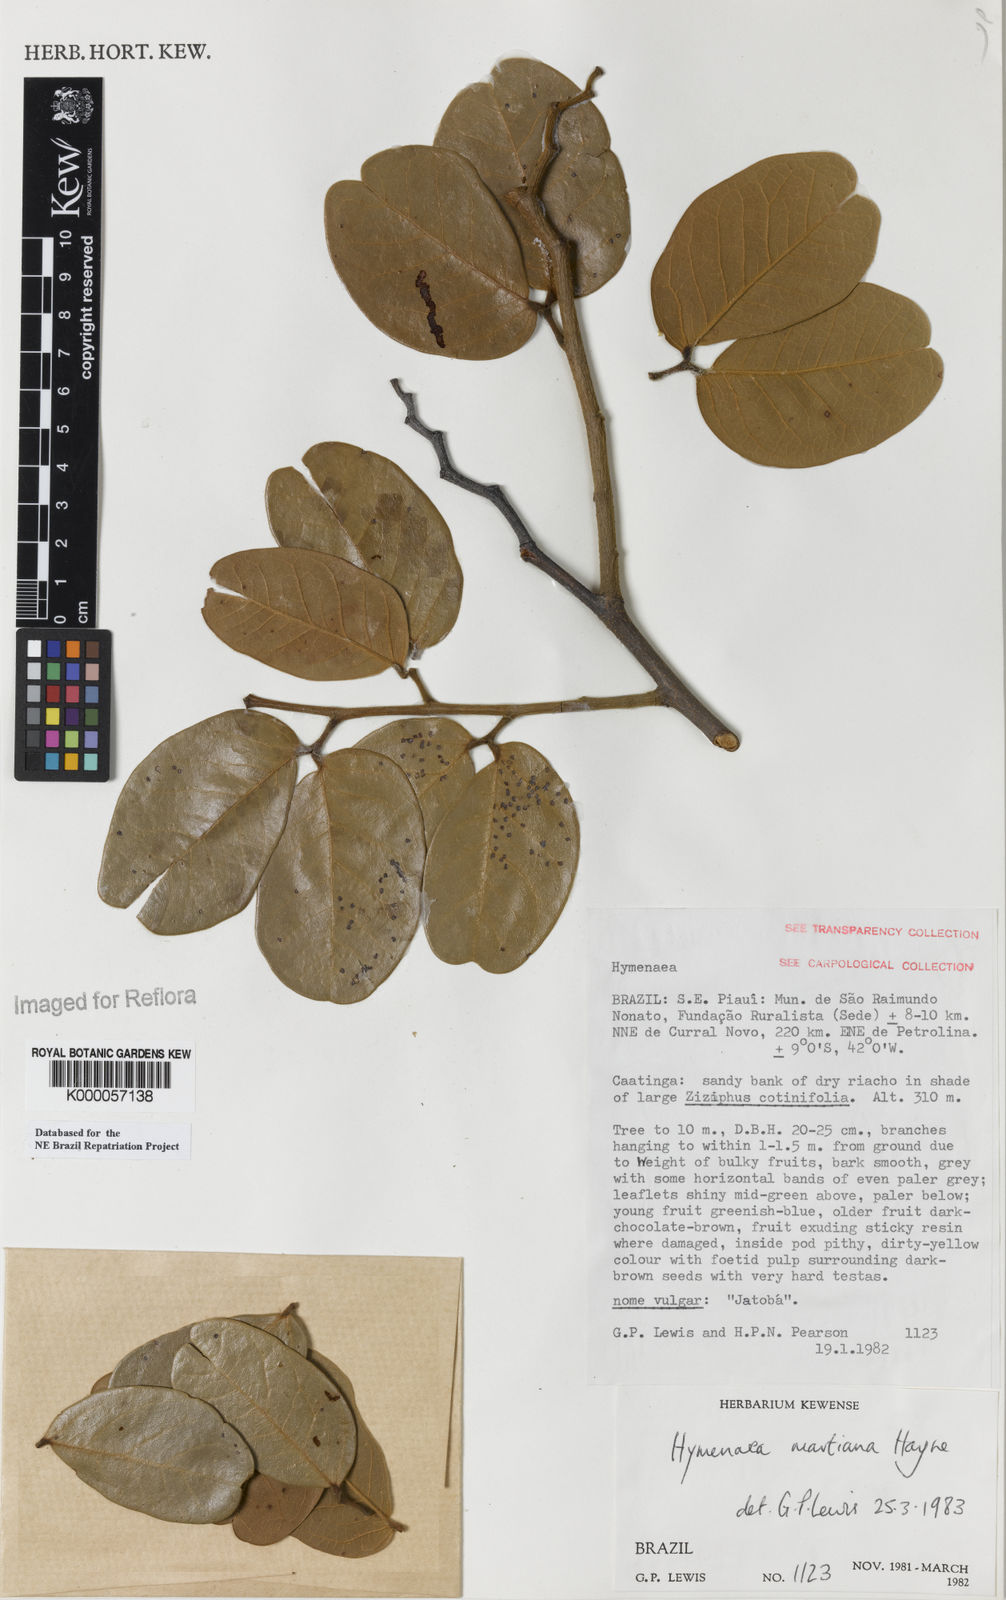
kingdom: Plantae
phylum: Tracheophyta
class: Magnoliopsida
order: Fabales
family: Fabaceae
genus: Hymenaea
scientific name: Hymenaea martiana
